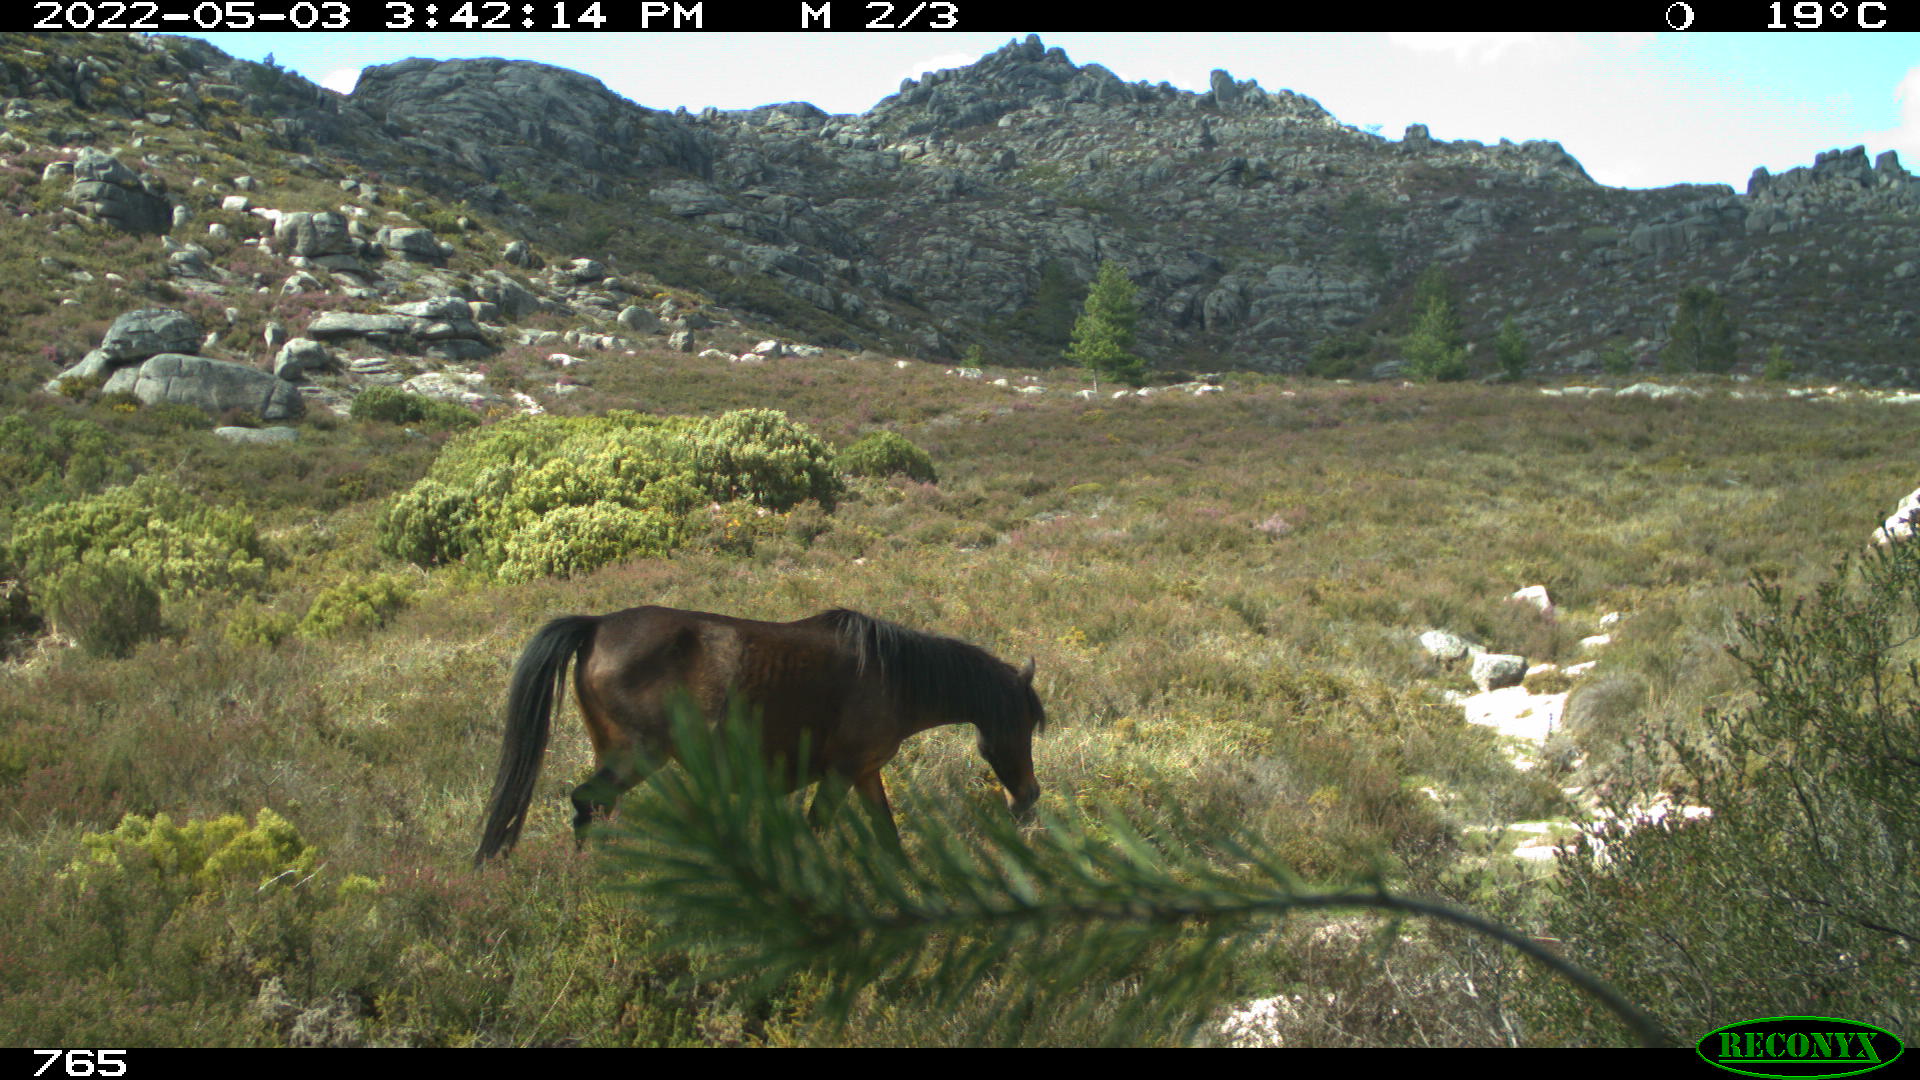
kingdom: Animalia
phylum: Chordata
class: Mammalia
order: Perissodactyla
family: Equidae
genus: Equus
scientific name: Equus caballus
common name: Horse
